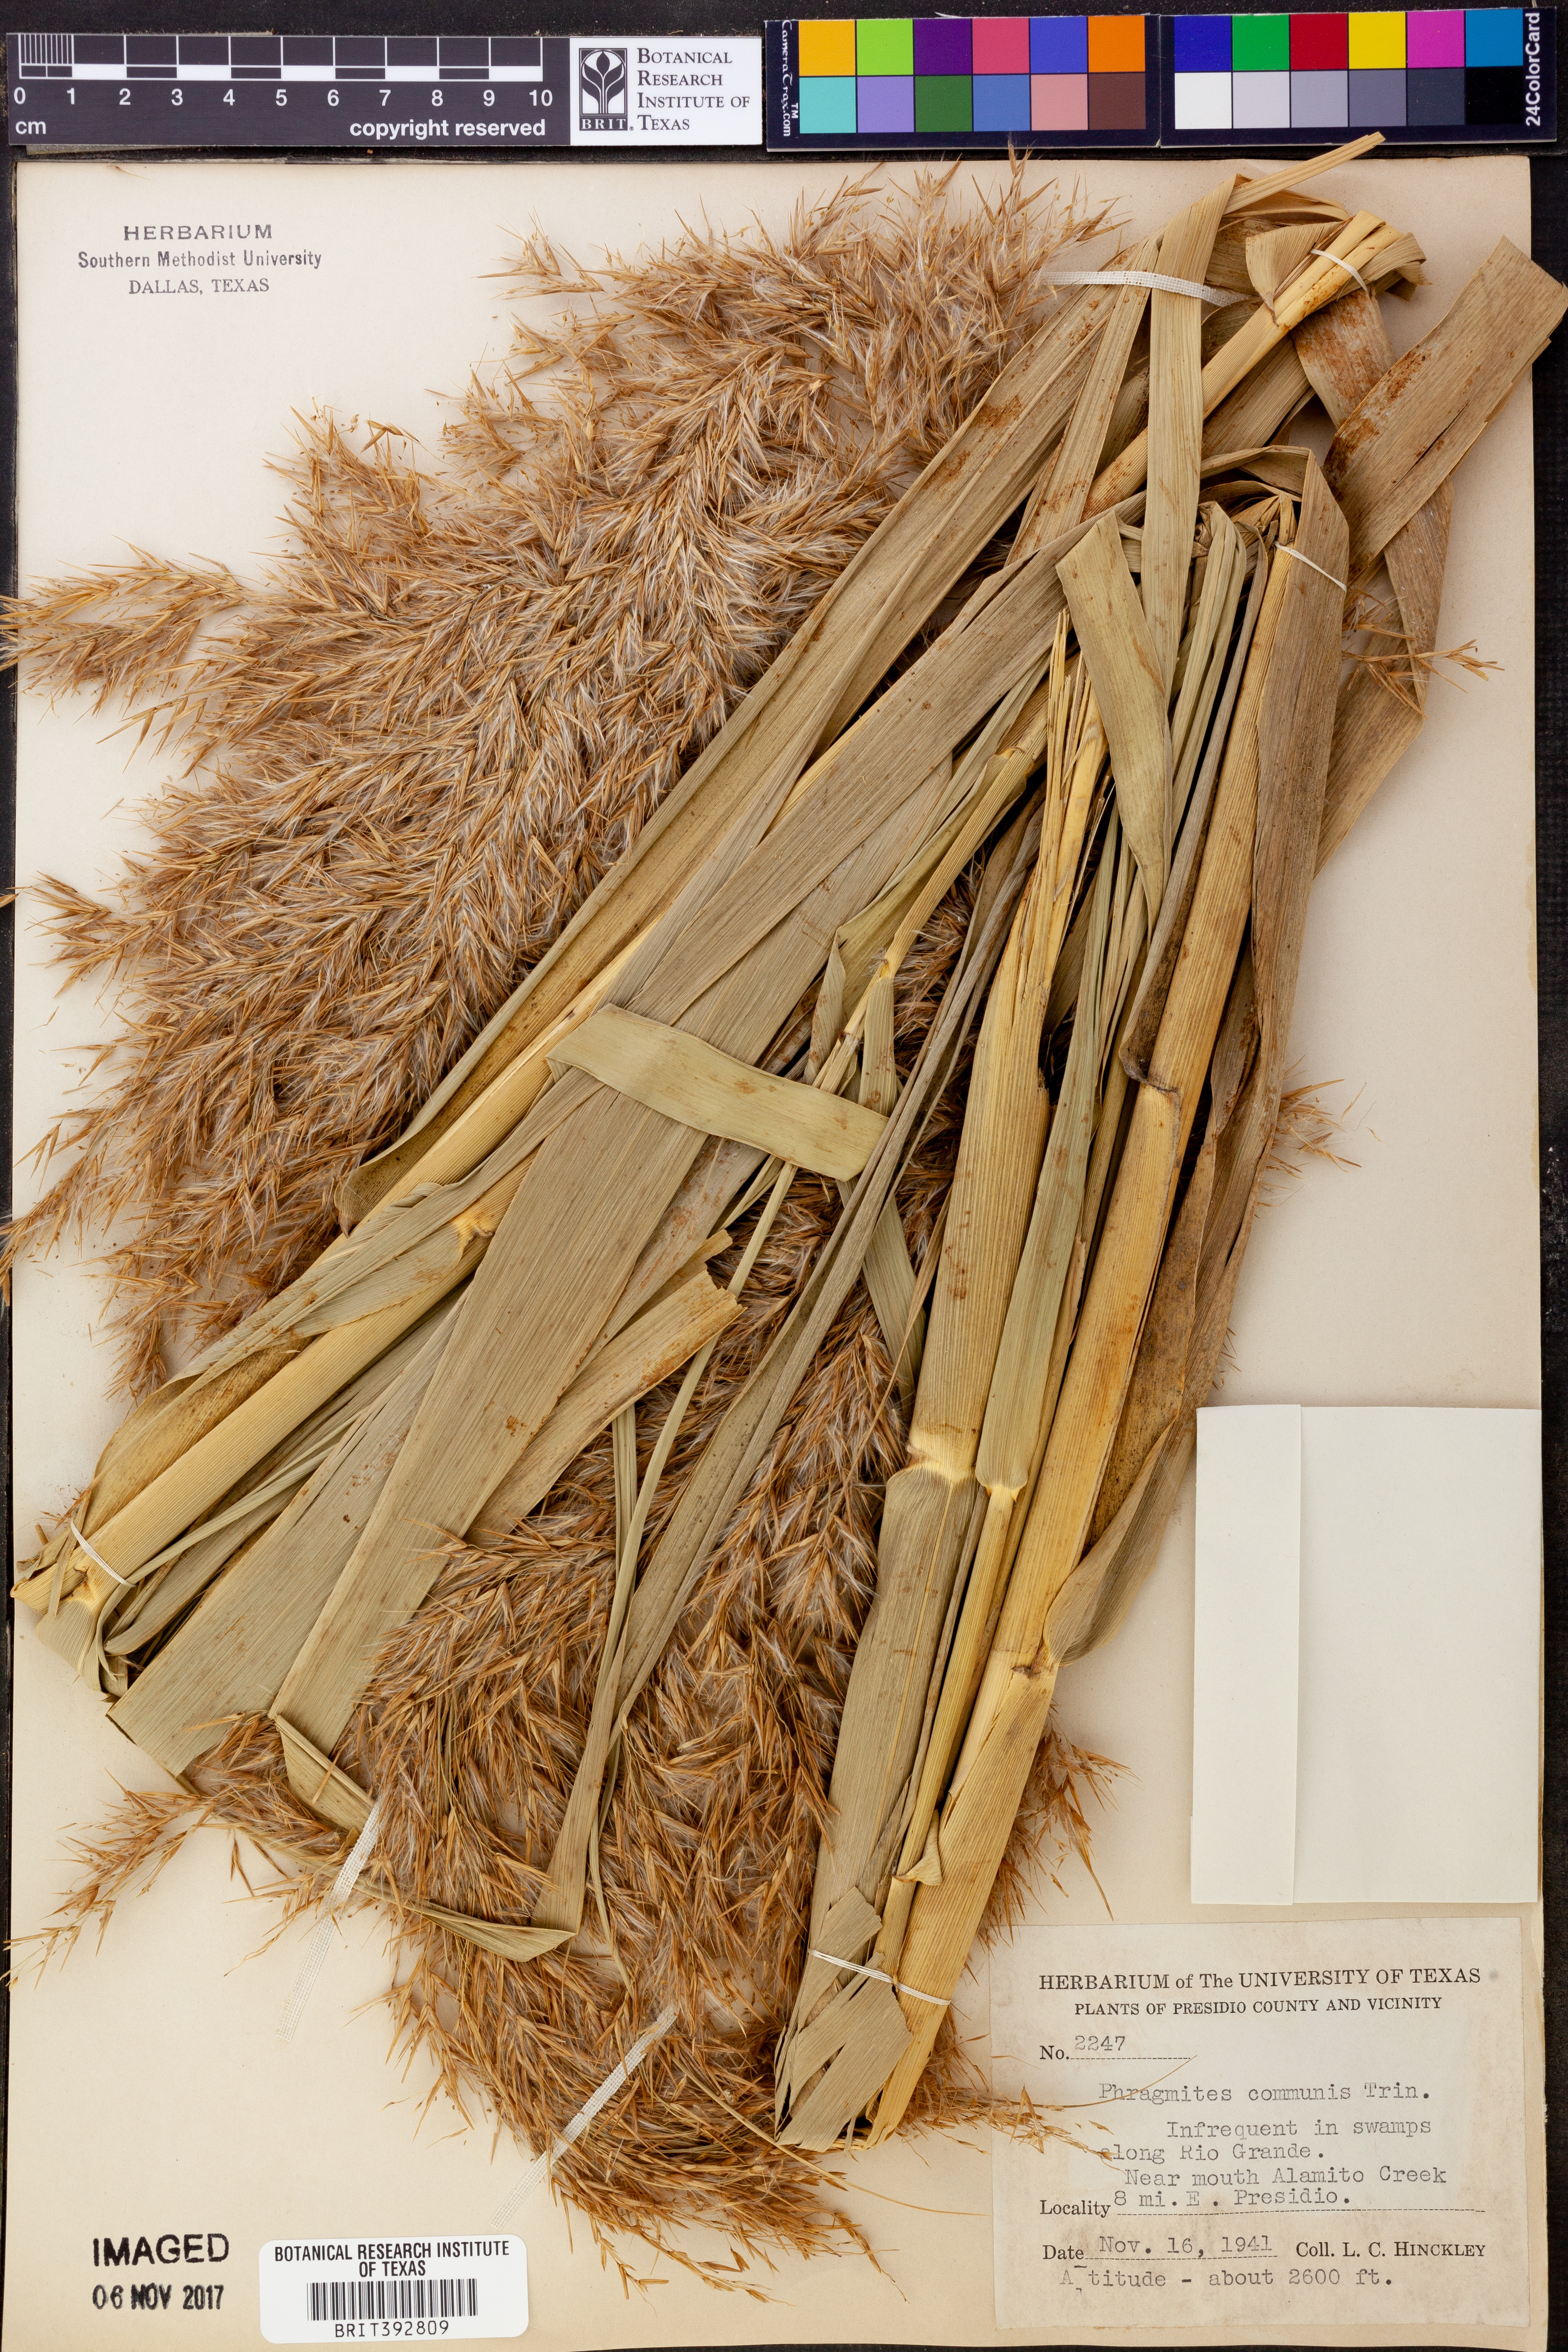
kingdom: Plantae
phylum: Tracheophyta
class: Liliopsida
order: Poales
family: Poaceae
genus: Phragmites
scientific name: Phragmites australis
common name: Common reed
